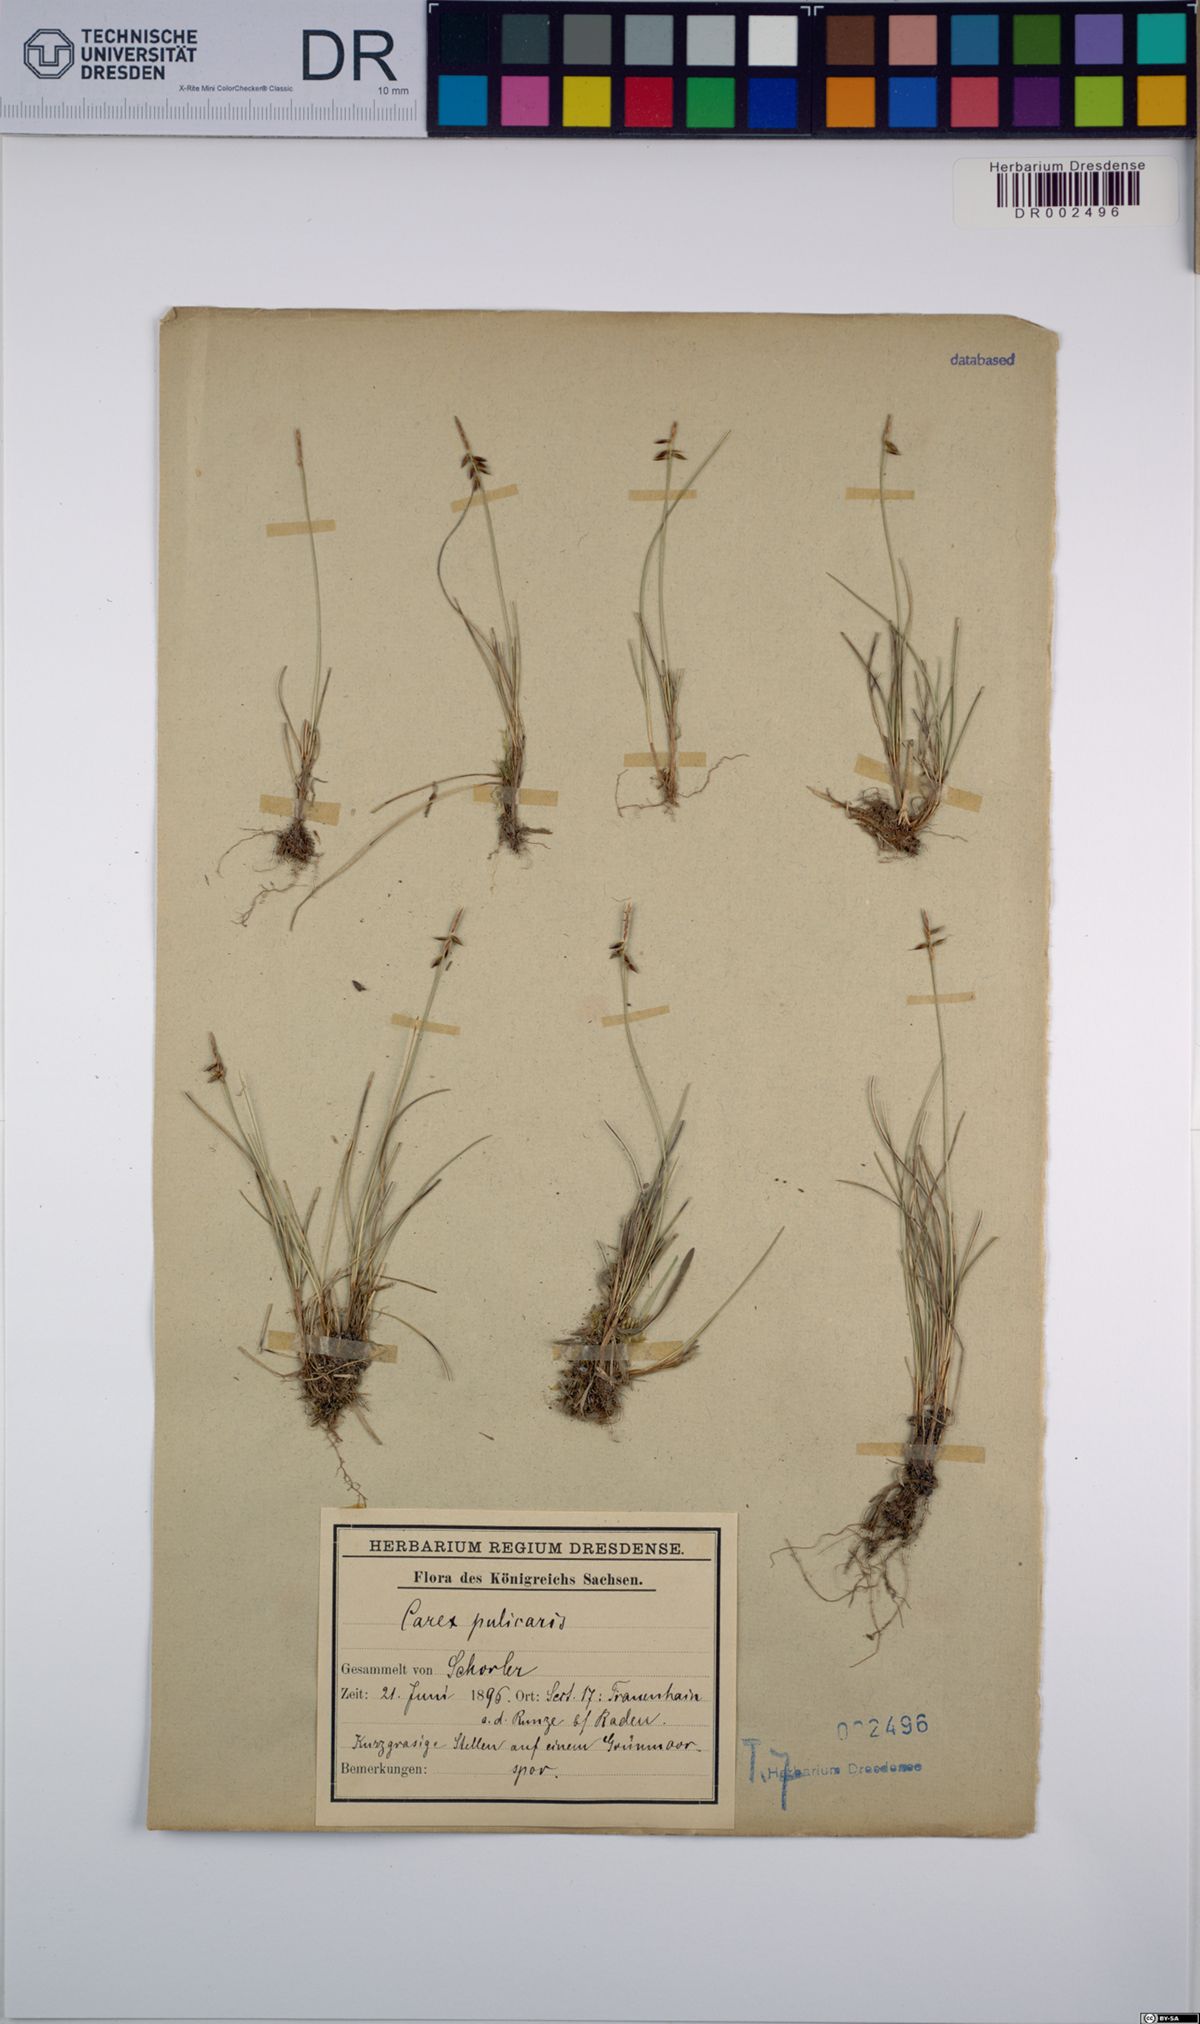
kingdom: Plantae
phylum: Tracheophyta
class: Liliopsida
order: Poales
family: Cyperaceae
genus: Carex
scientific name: Carex pulicaris
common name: Flea sedge
